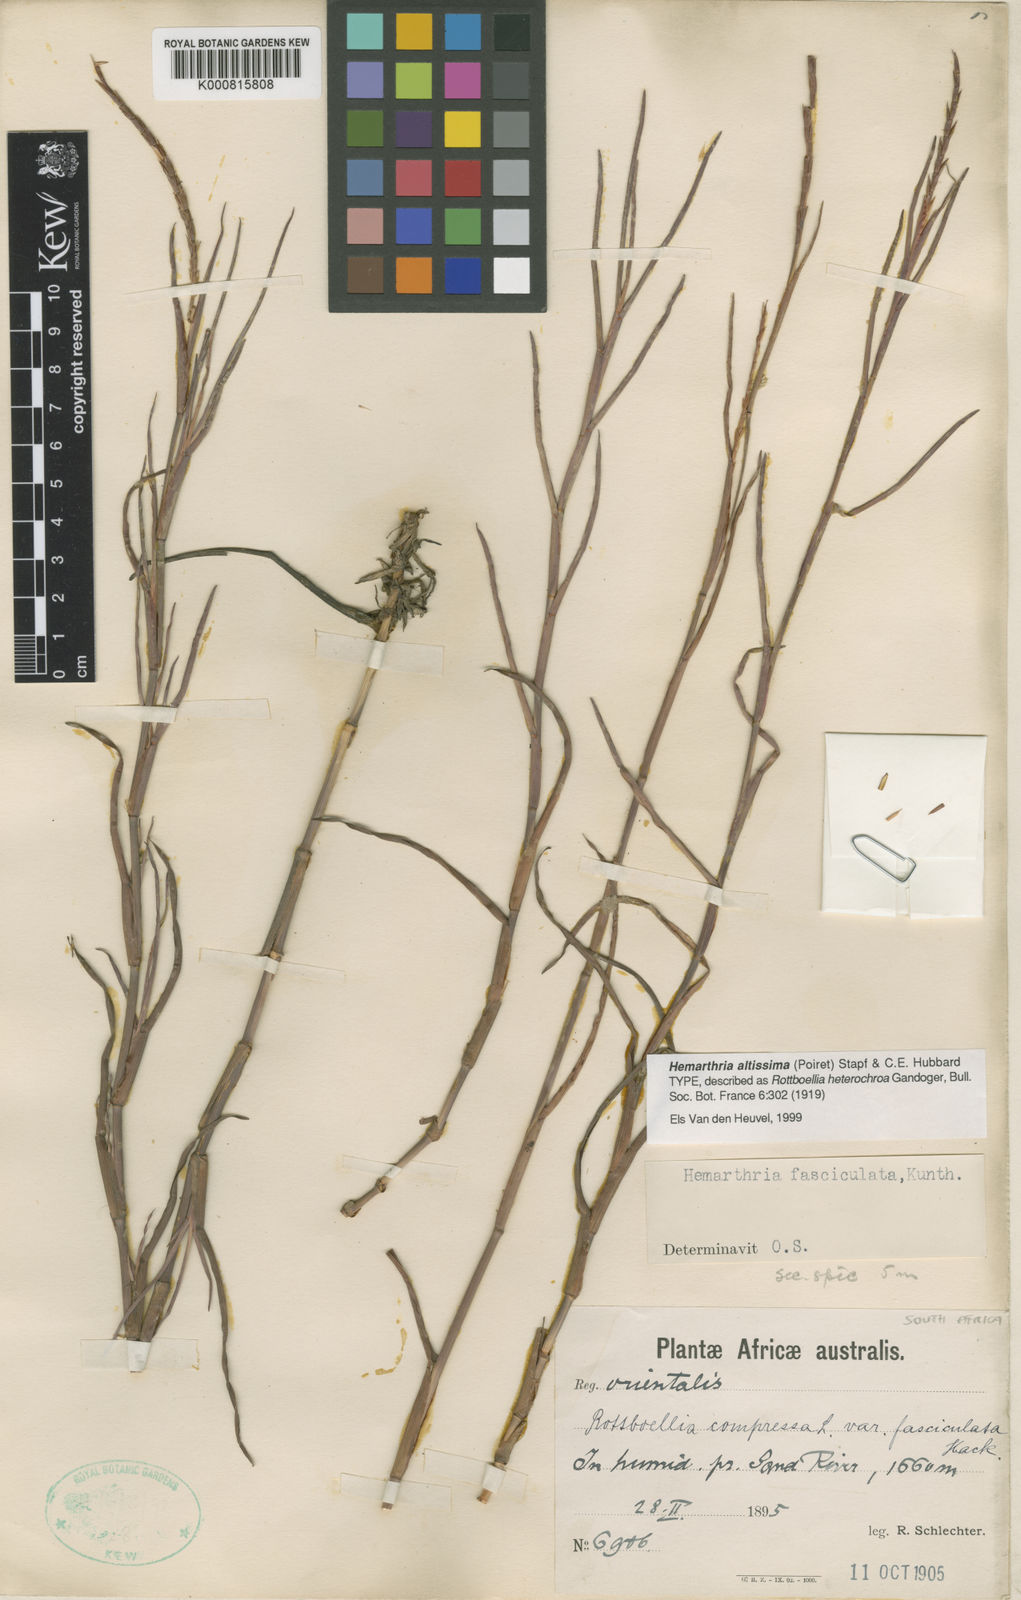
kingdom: Plantae
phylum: Tracheophyta
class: Liliopsida
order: Poales
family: Poaceae
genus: Hemarthria
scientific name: Hemarthria altissima
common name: African jointgrass
